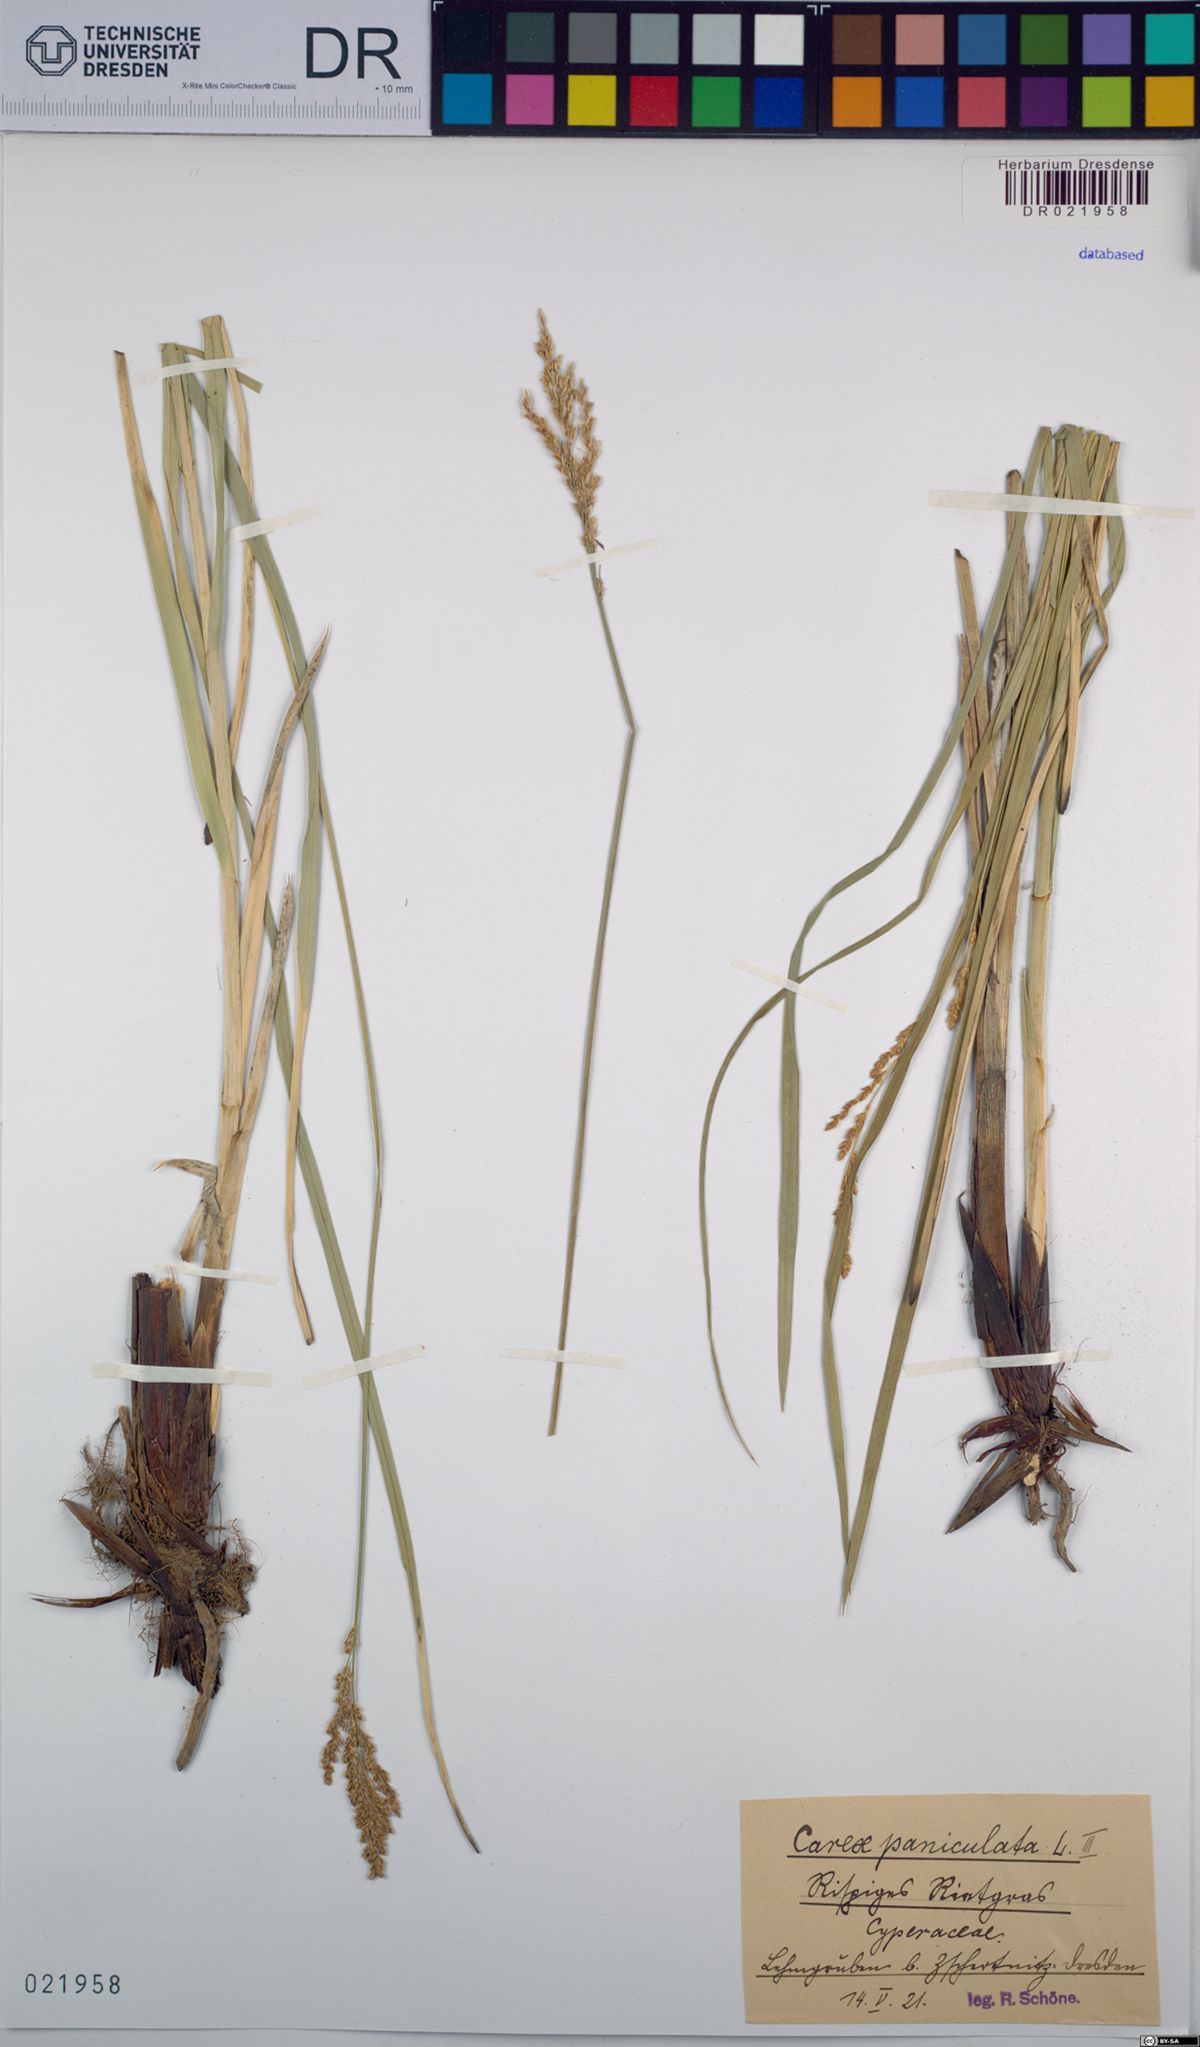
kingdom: Plantae
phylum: Tracheophyta
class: Liliopsida
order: Poales
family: Cyperaceae
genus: Carex
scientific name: Carex paniculata
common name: Greater tussock-sedge
